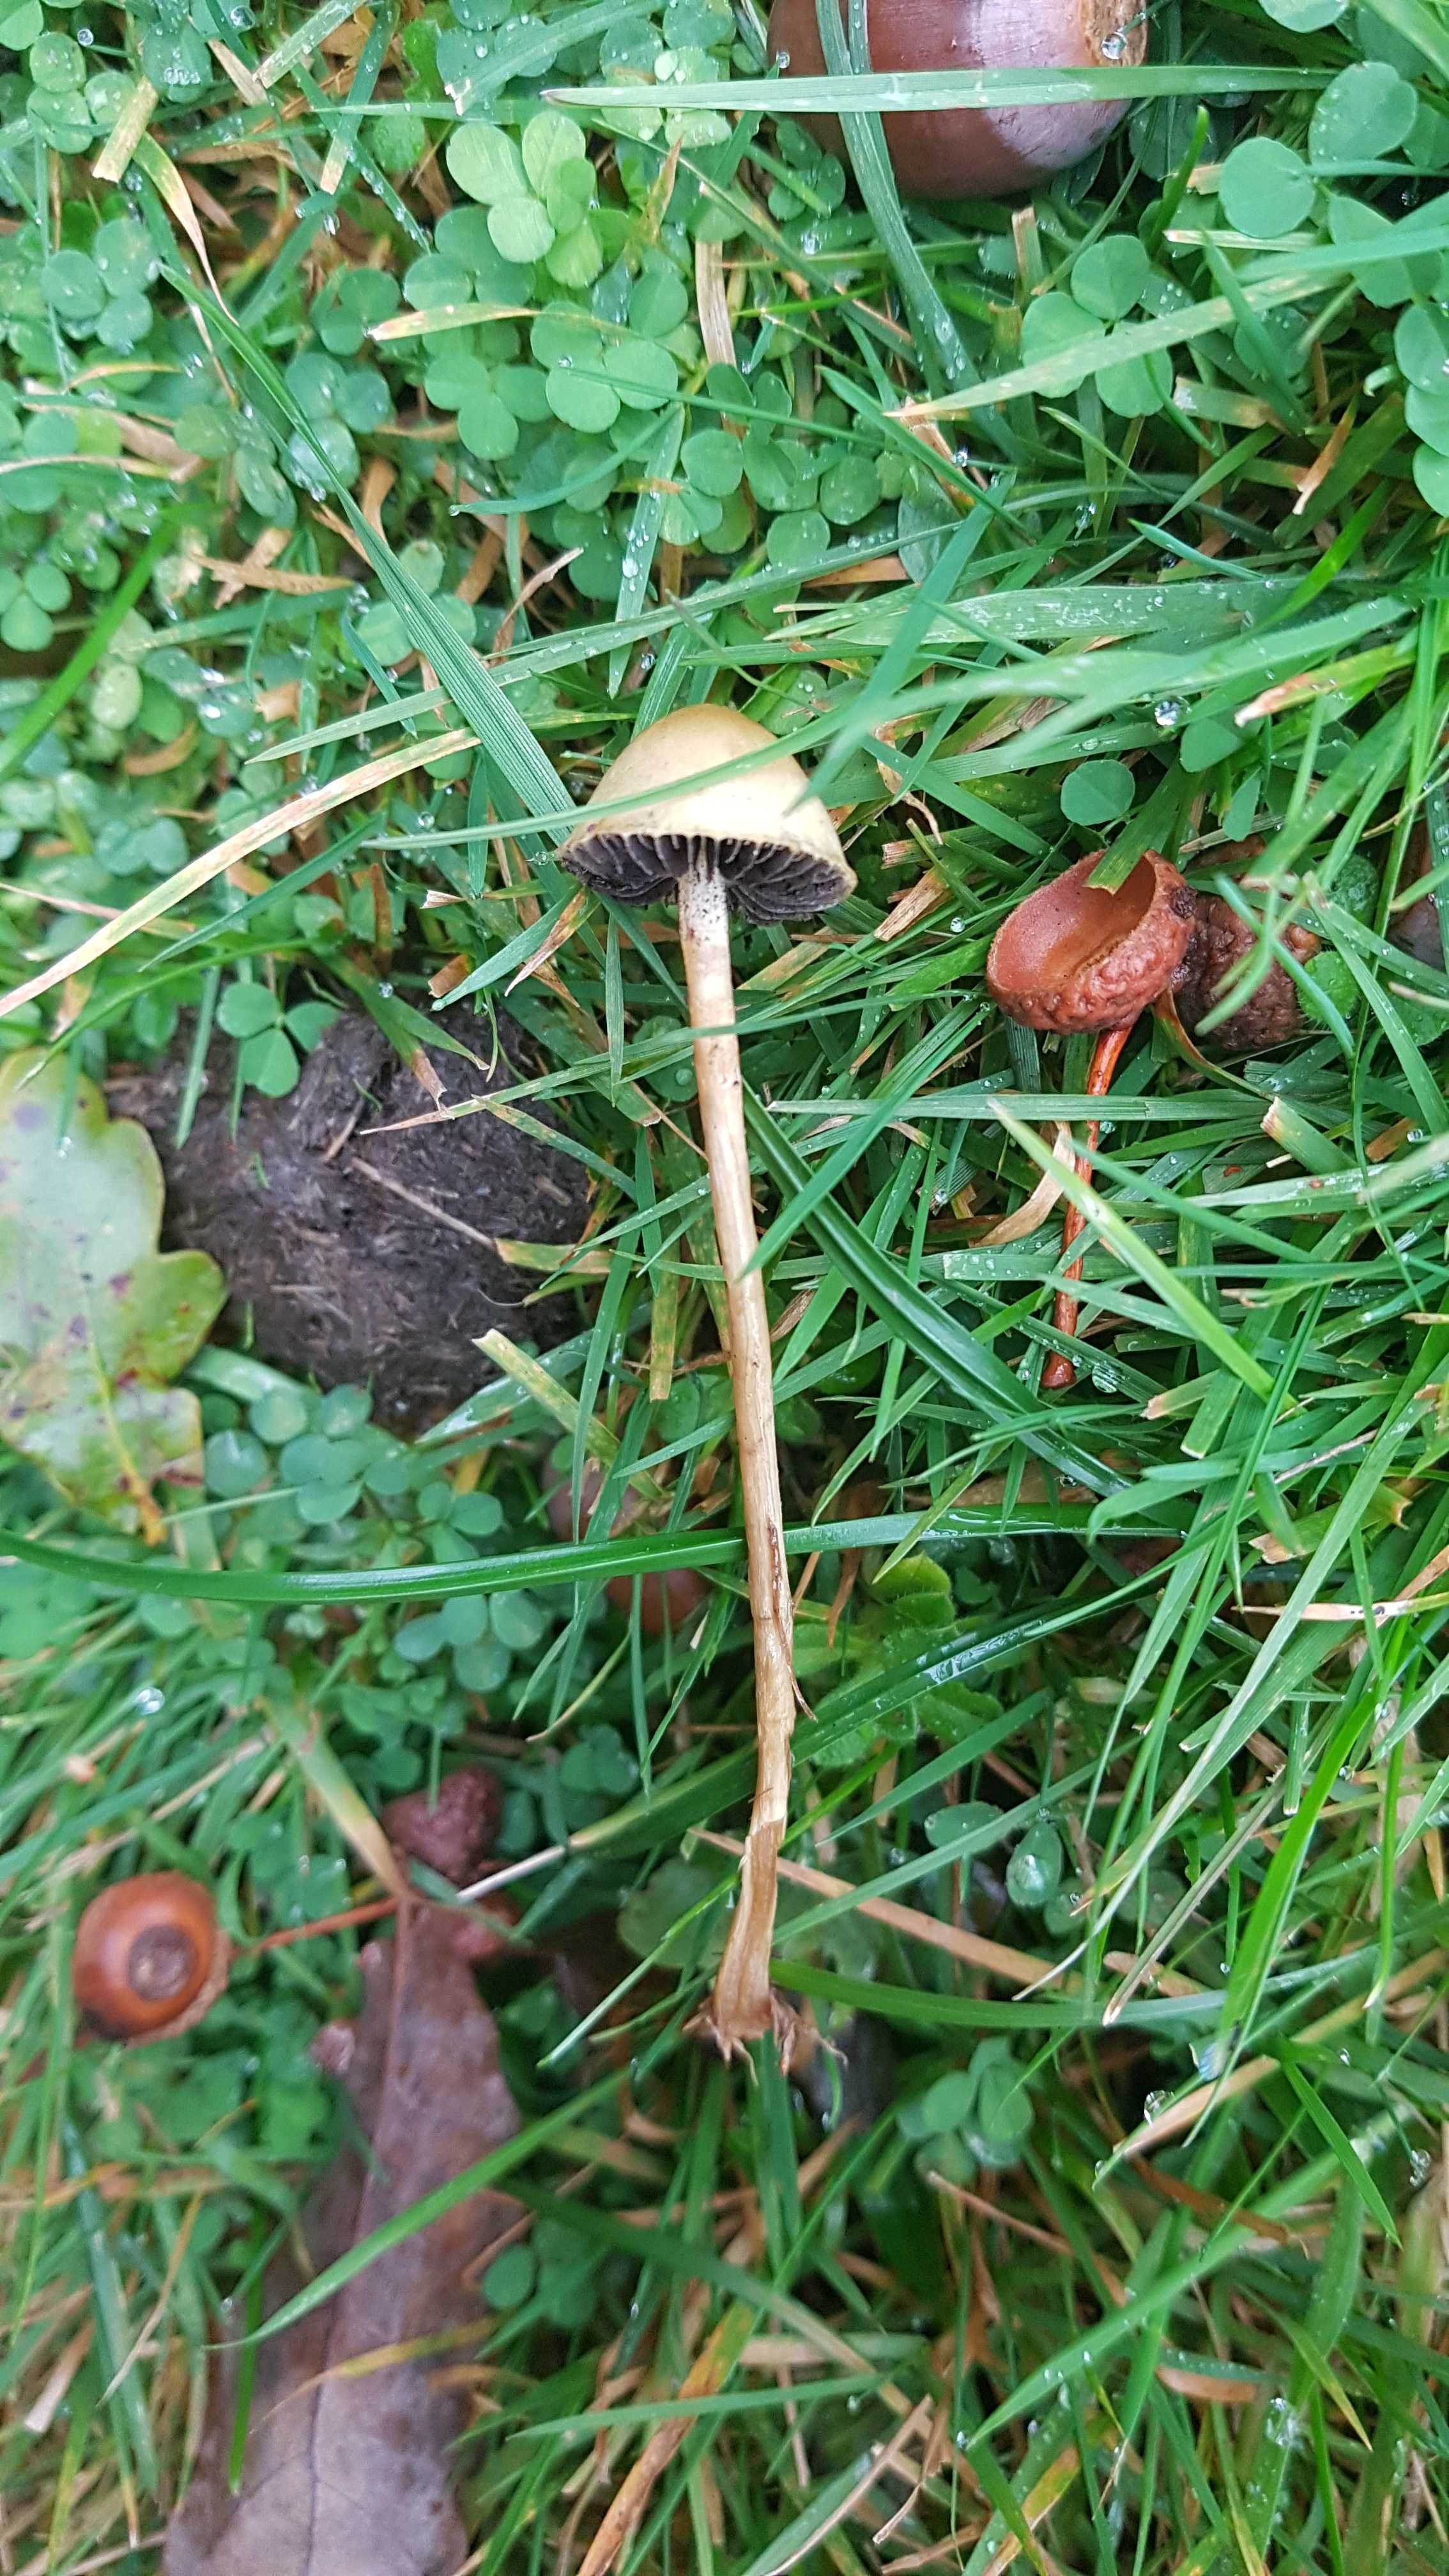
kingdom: Fungi
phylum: Basidiomycota
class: Agaricomycetes
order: Agaricales
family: Strophariaceae
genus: Protostropharia
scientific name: Protostropharia
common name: bredblad
